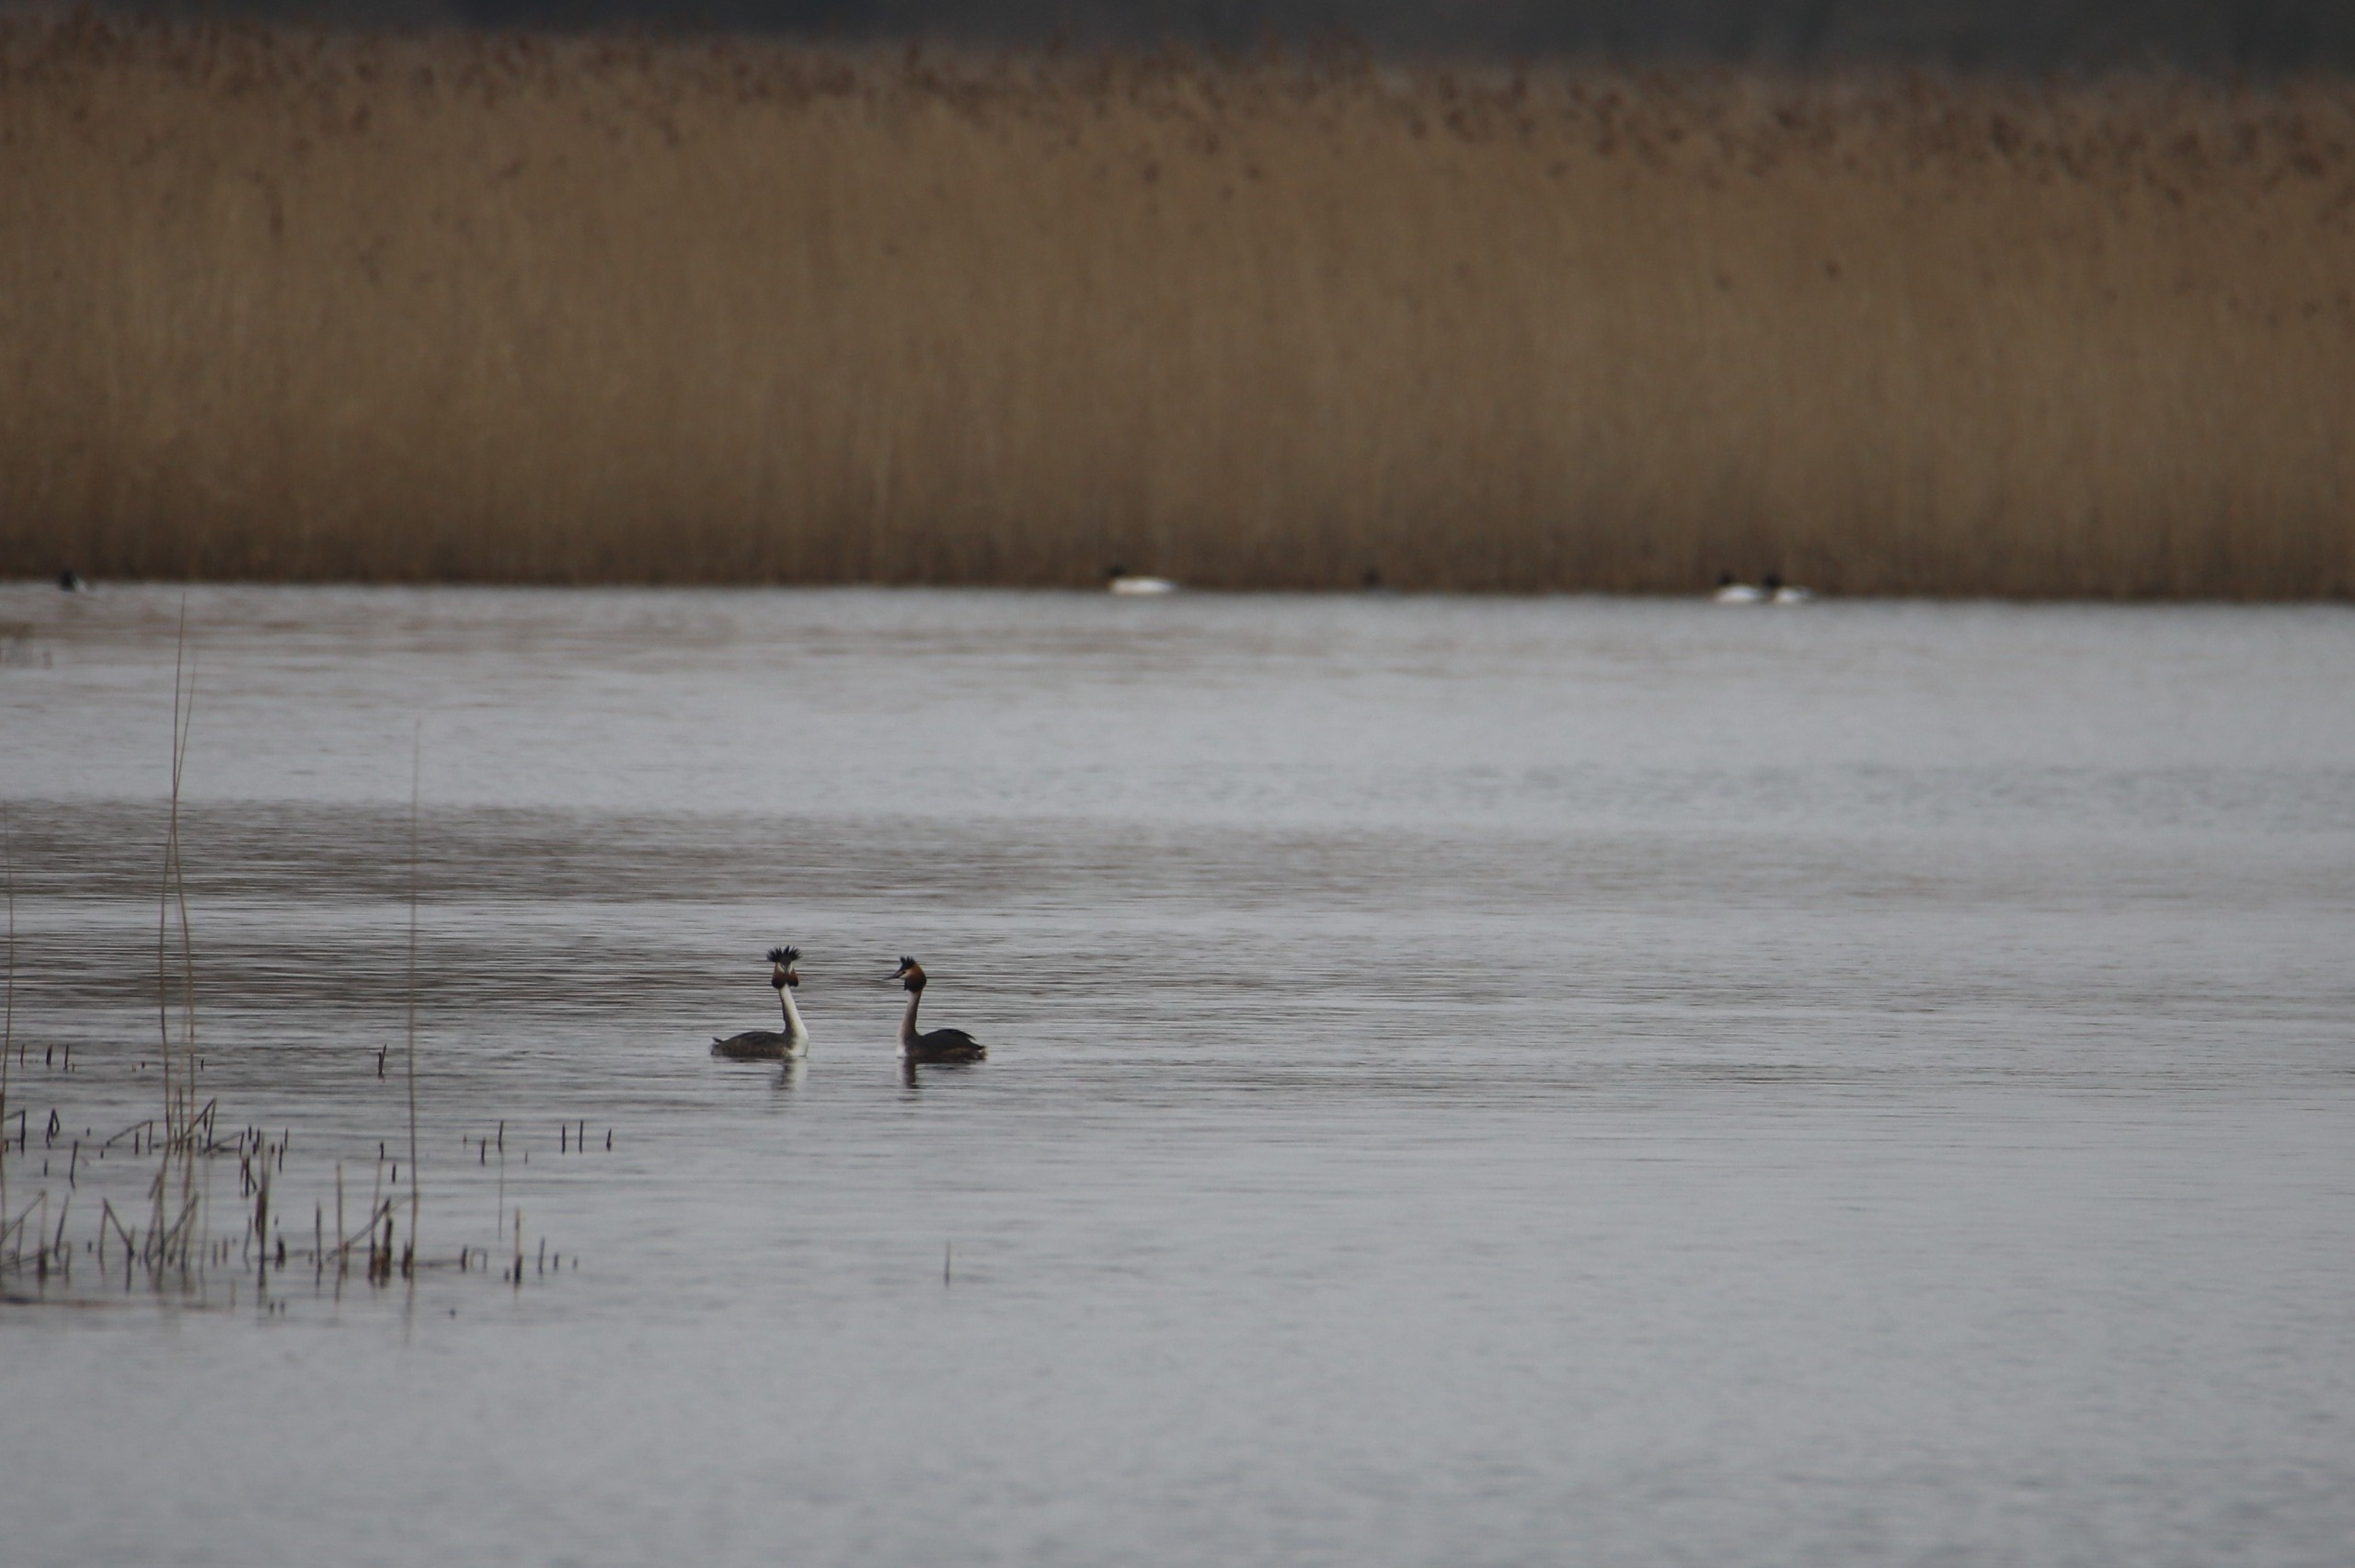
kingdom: Animalia
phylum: Chordata
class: Aves
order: Podicipediformes
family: Podicipedidae
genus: Podiceps
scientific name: Podiceps cristatus
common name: Toppet lappedykker
